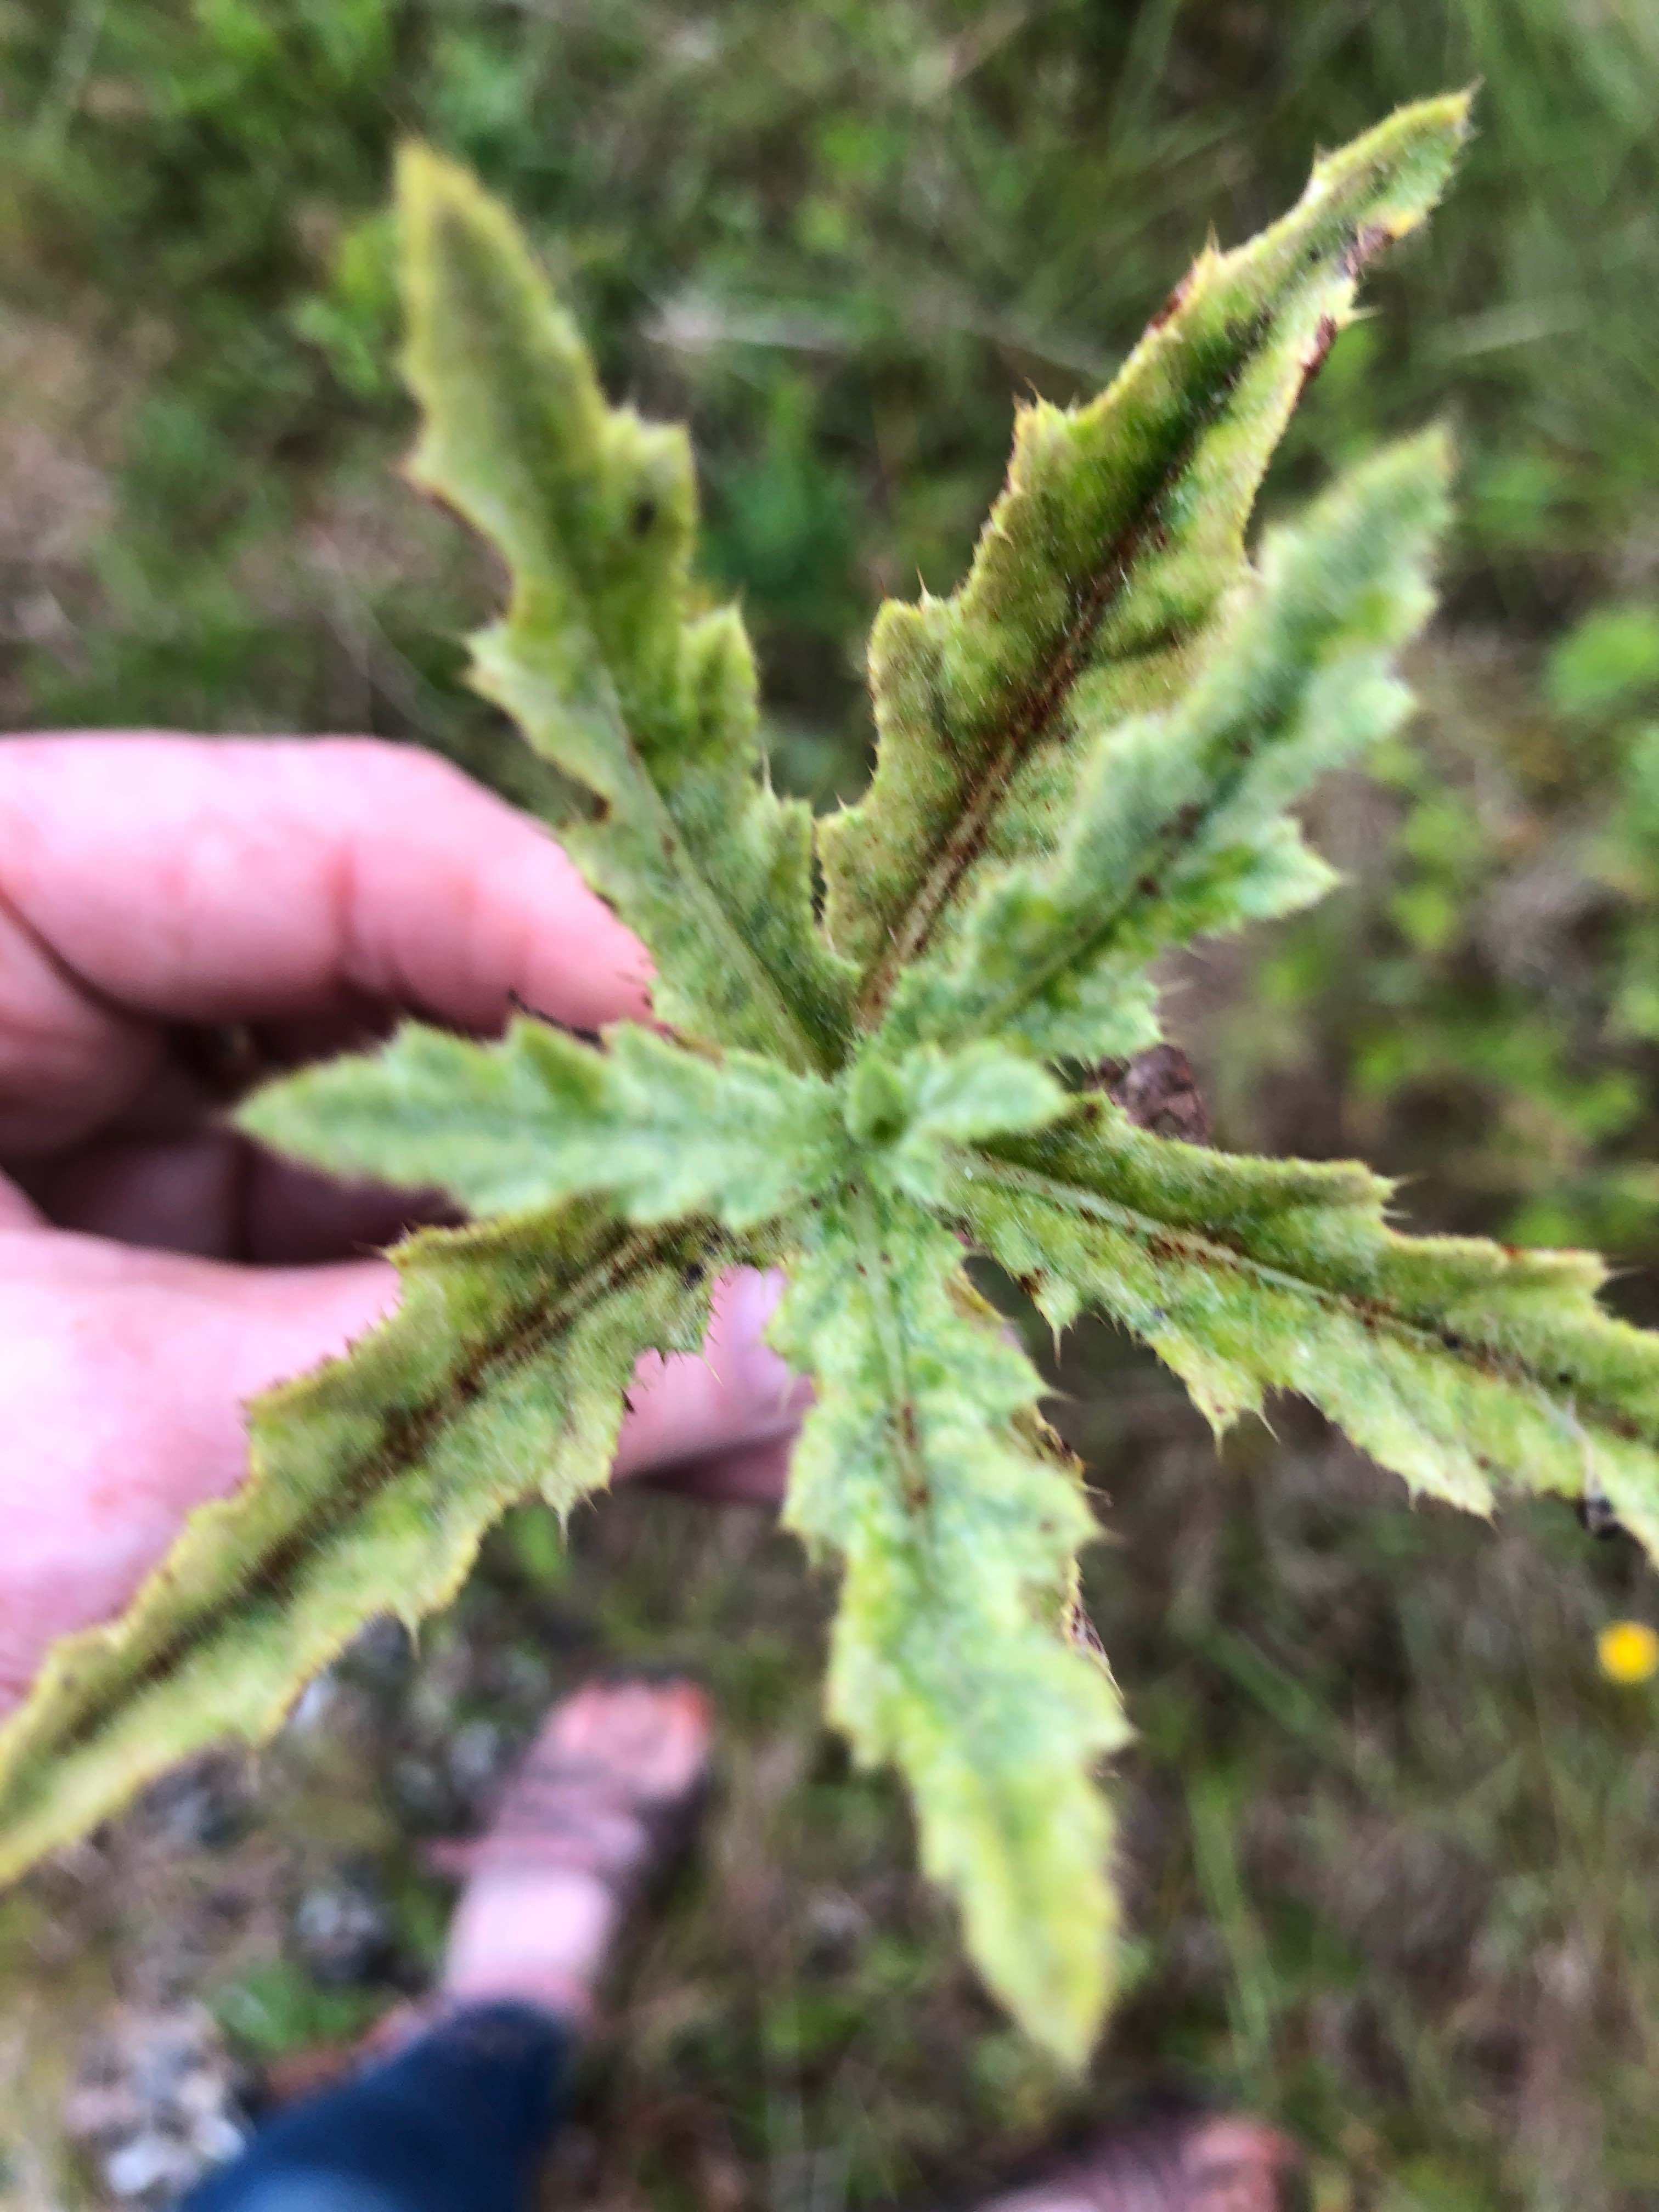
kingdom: Fungi
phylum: Basidiomycota
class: Pucciniomycetes
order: Pucciniales
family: Pucciniaceae
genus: Puccinia
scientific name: Puccinia suaveolens
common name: tidsel-tvecellerust
